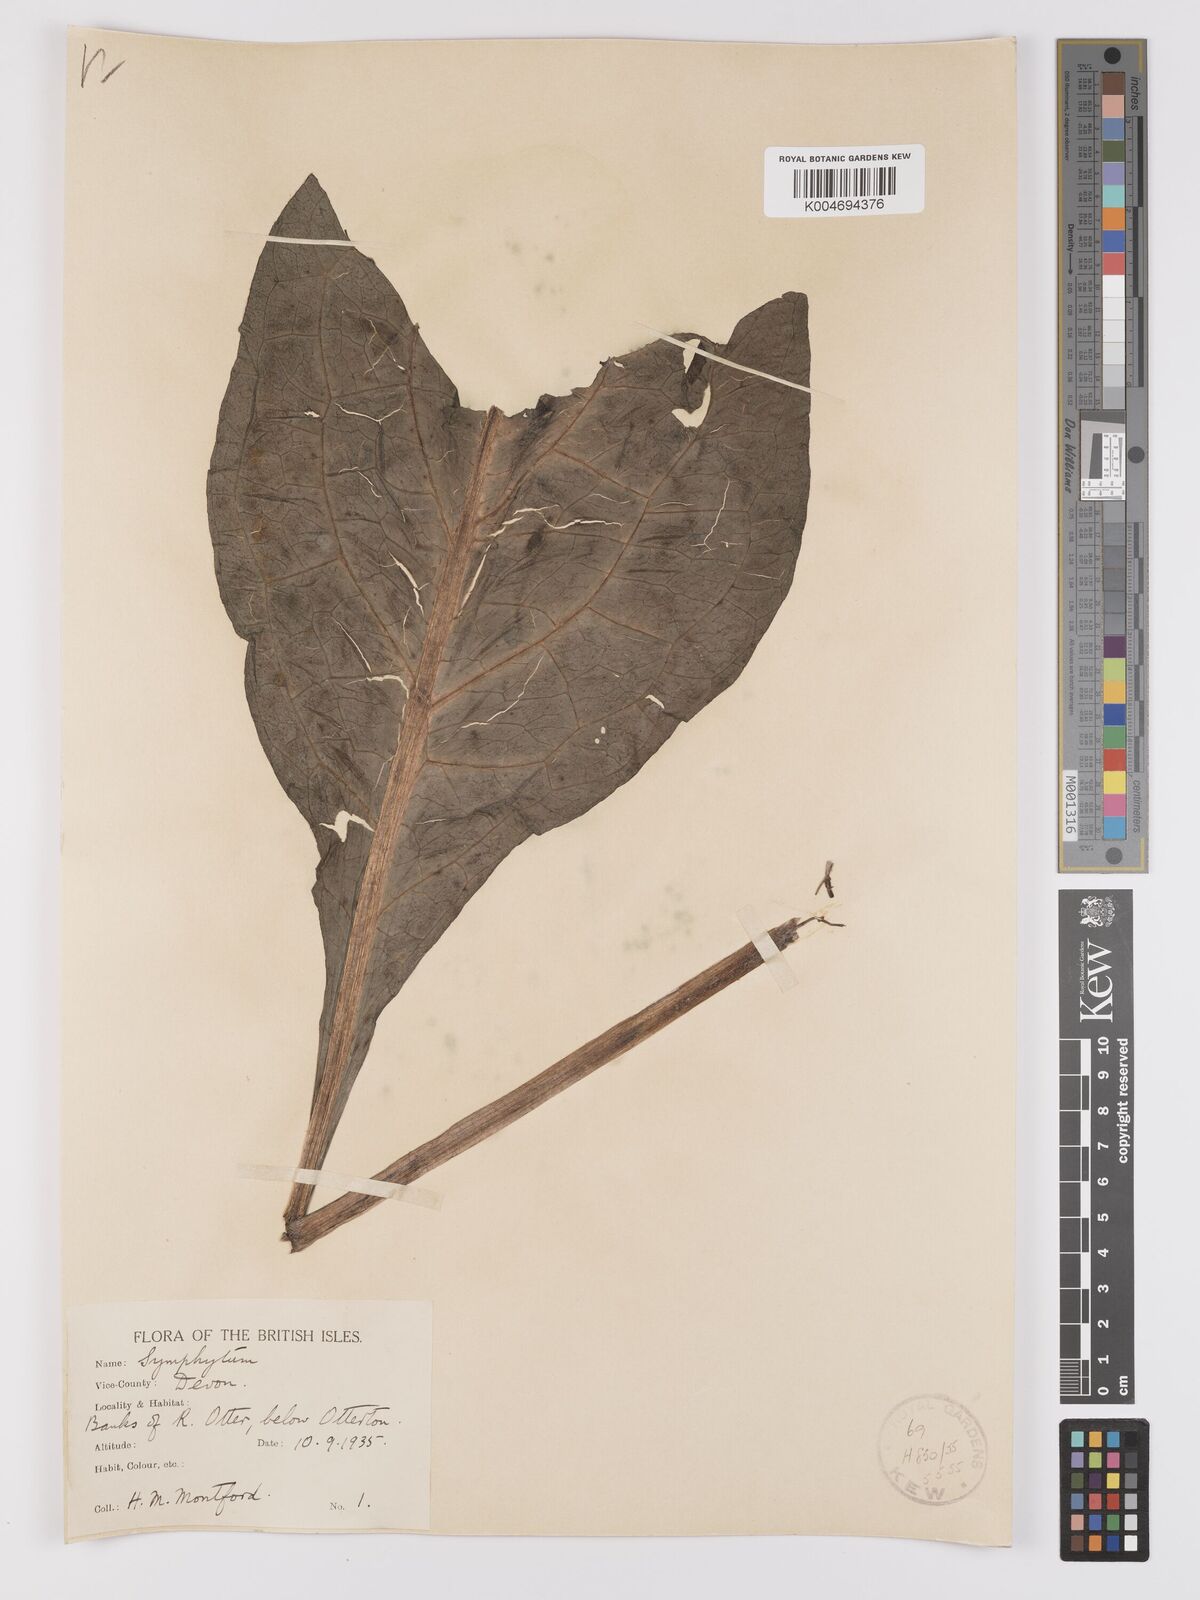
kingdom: Plantae
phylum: Tracheophyta
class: Magnoliopsida
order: Boraginales
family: Boraginaceae
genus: Symphytum
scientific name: Symphytum officinale
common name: Common comfrey
